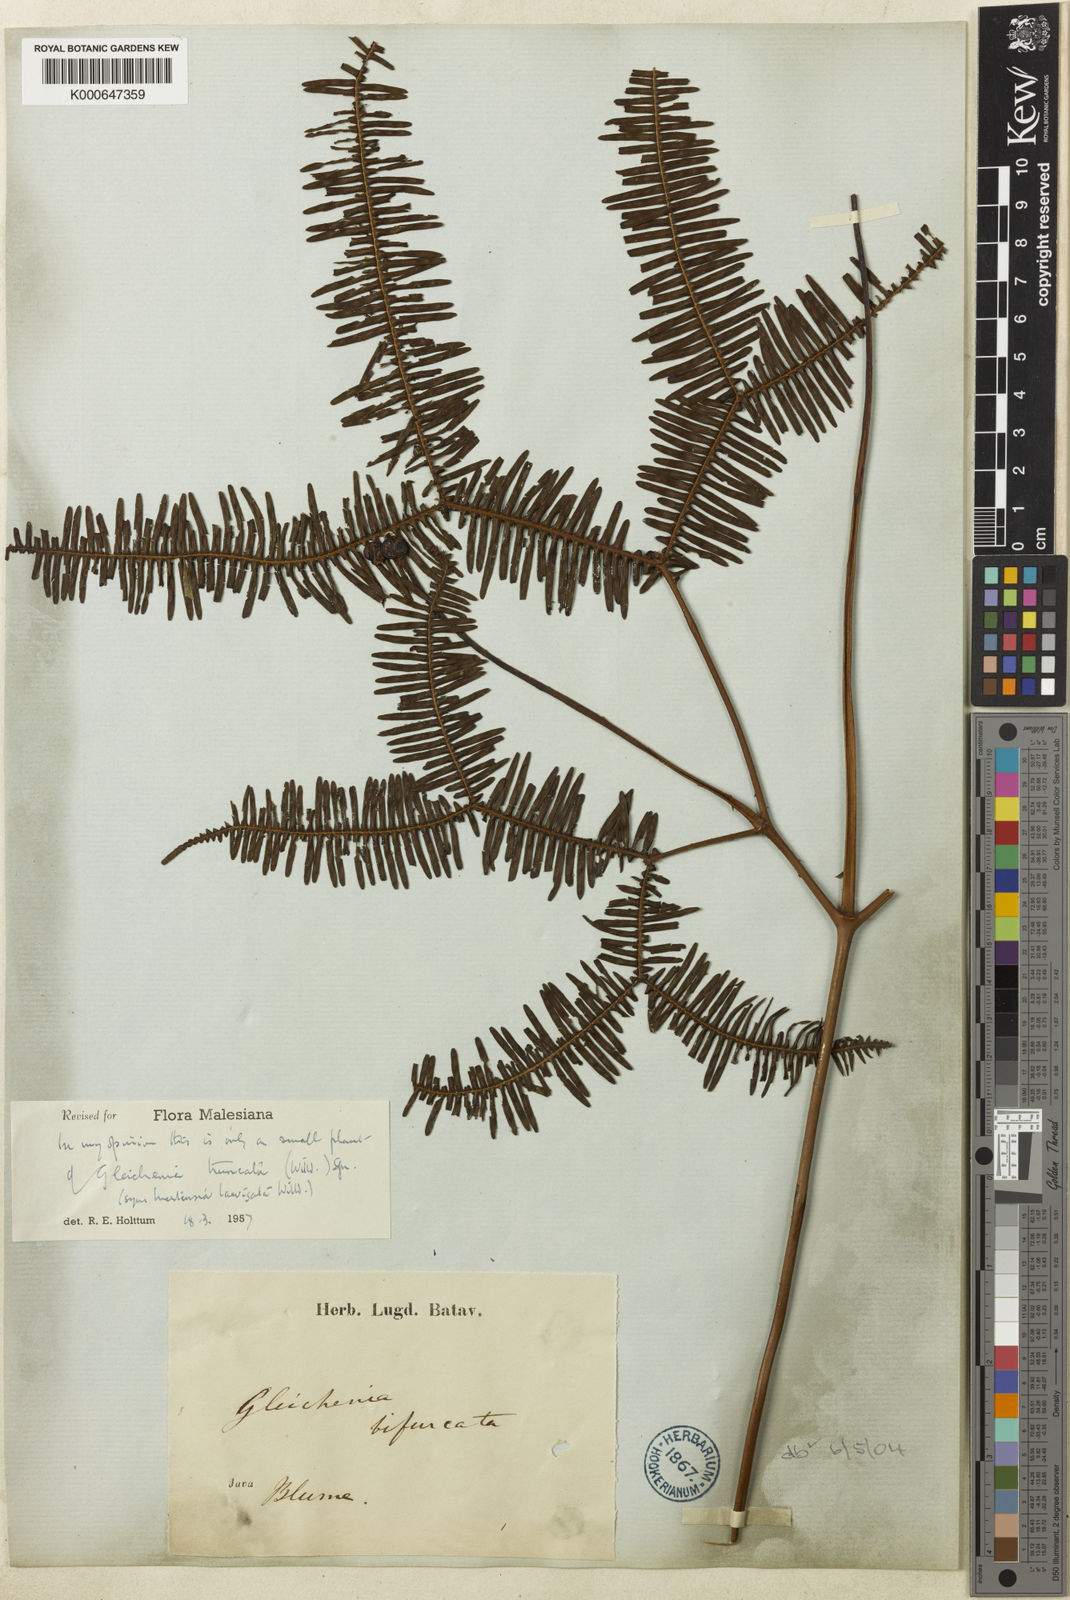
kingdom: Plantae
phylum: Tracheophyta
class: Polypodiopsida
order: Gleicheniales
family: Gleicheniaceae
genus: Sticherus
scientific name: Sticherus truncatus
